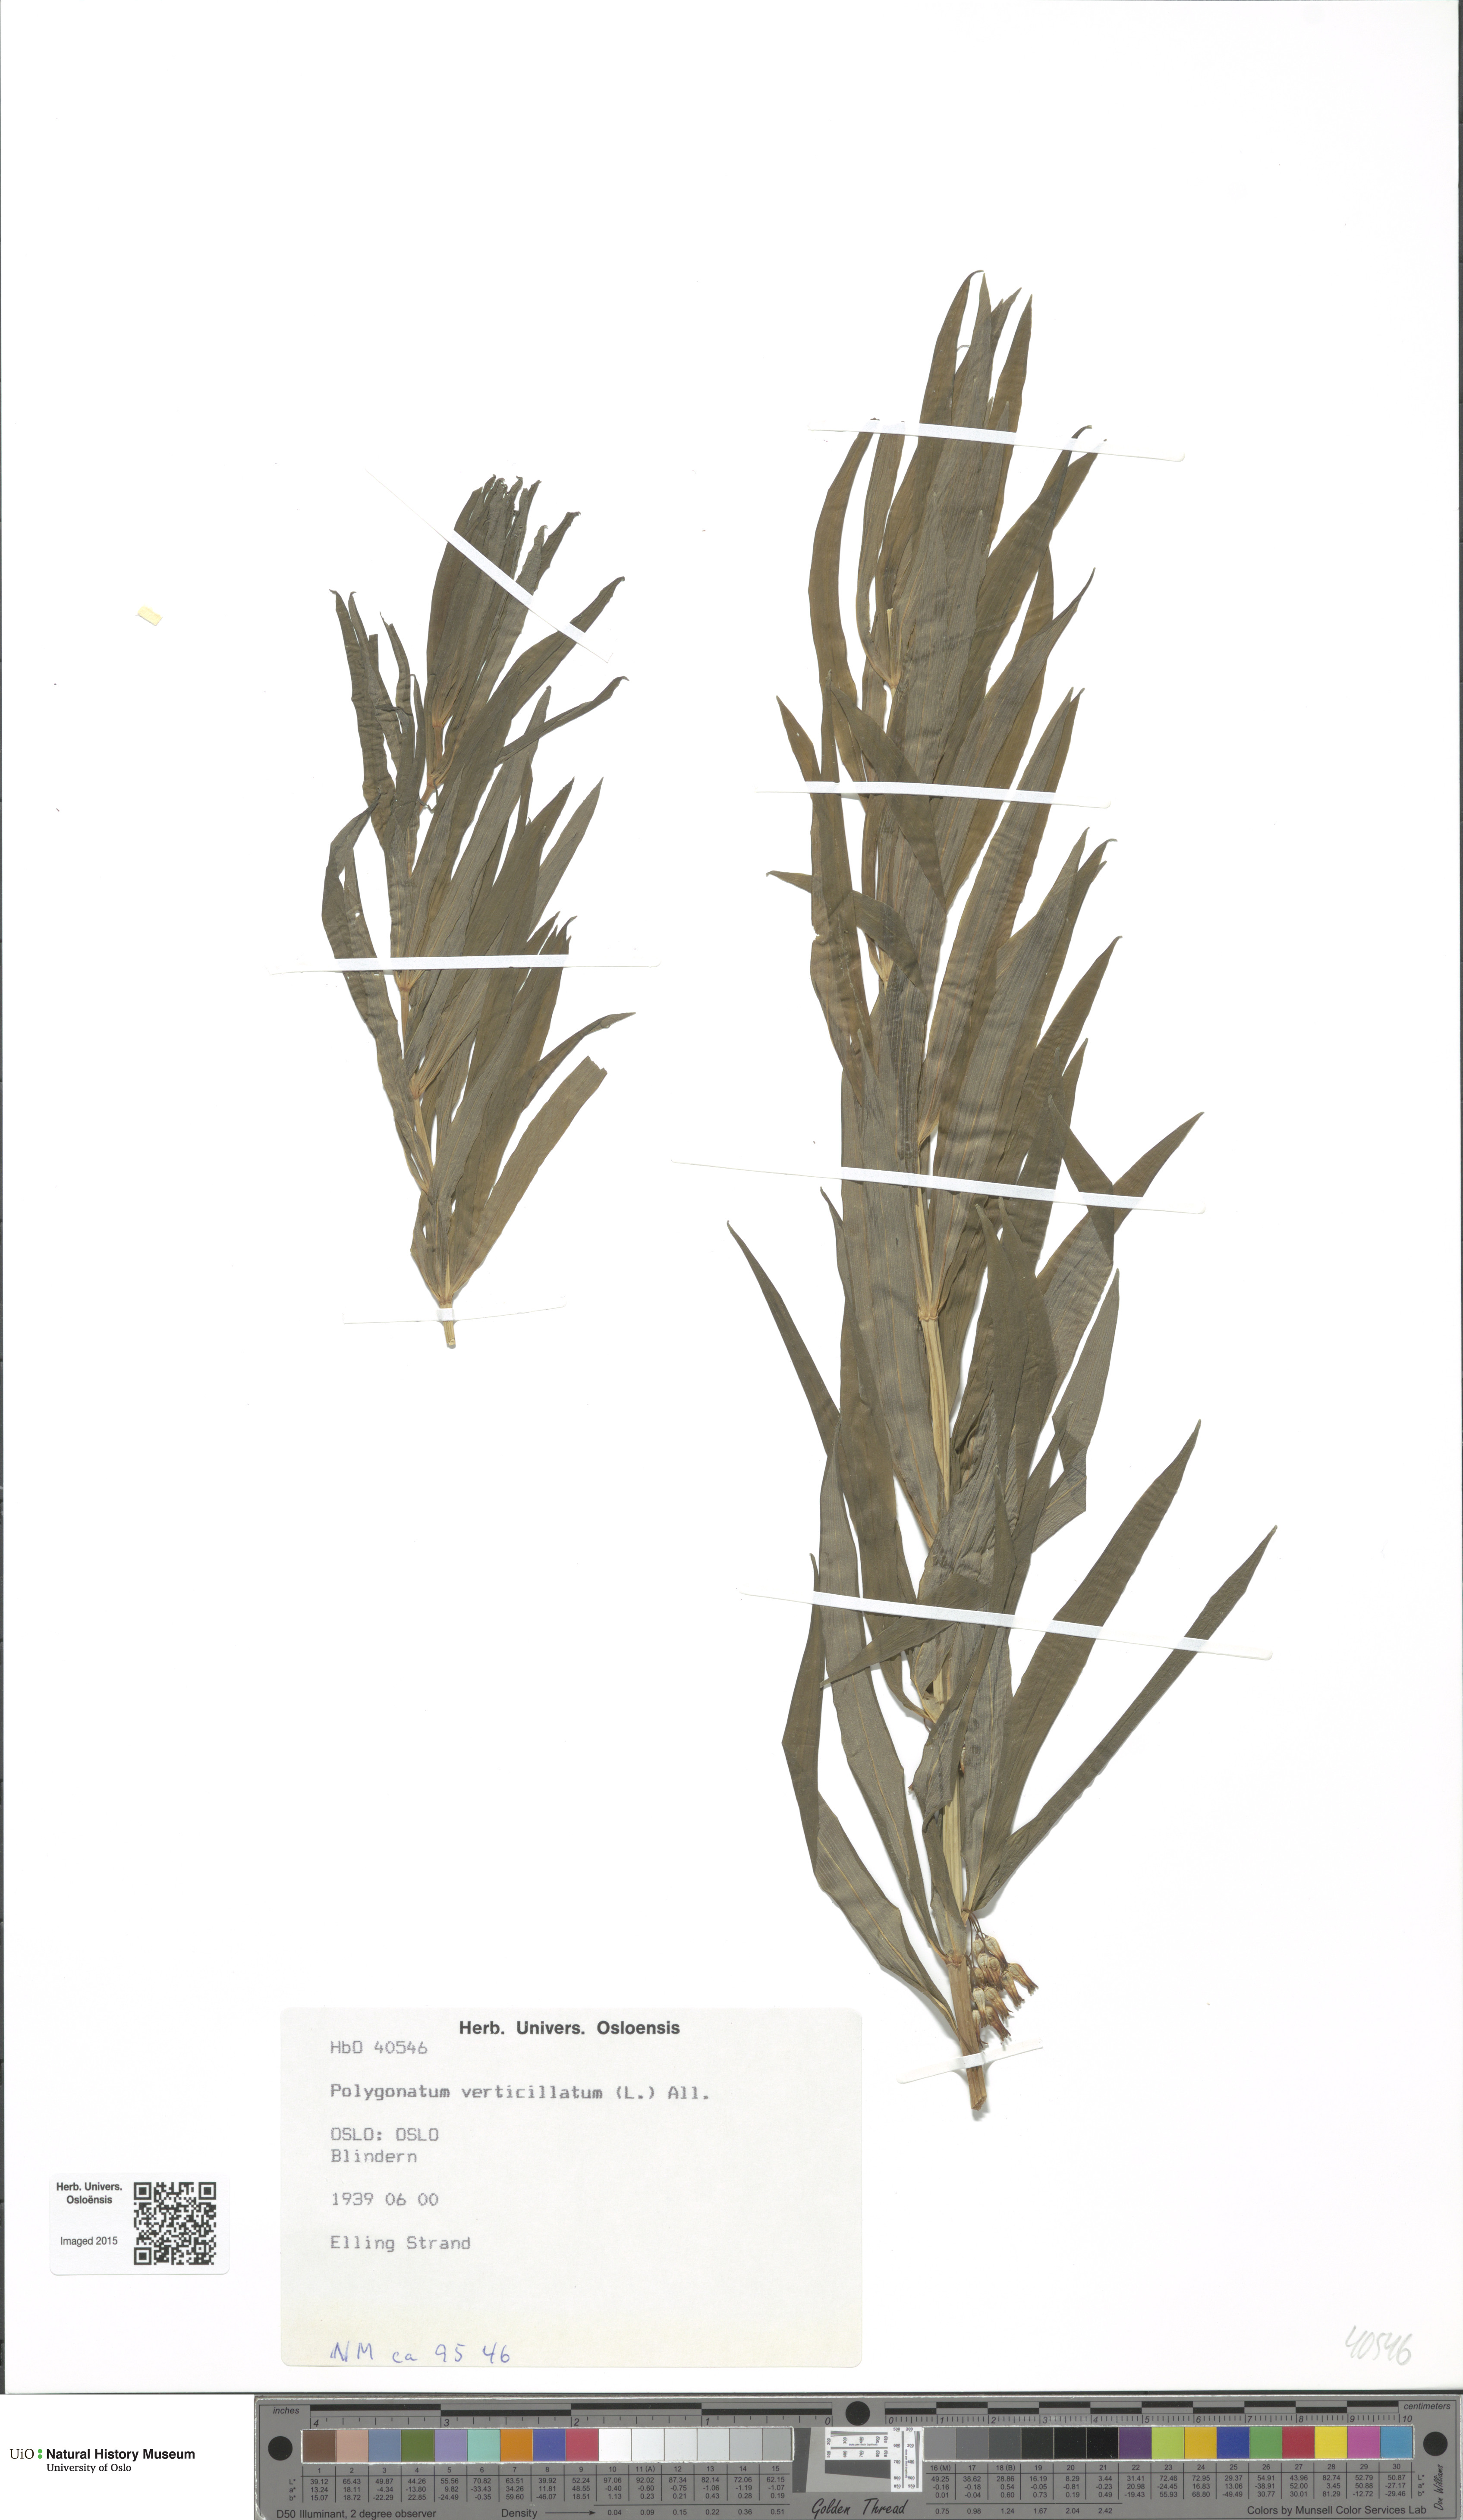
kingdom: Plantae
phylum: Tracheophyta
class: Liliopsida
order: Asparagales
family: Asparagaceae
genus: Polygonatum
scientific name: Polygonatum verticillatum
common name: Whorled solomon's-seal
